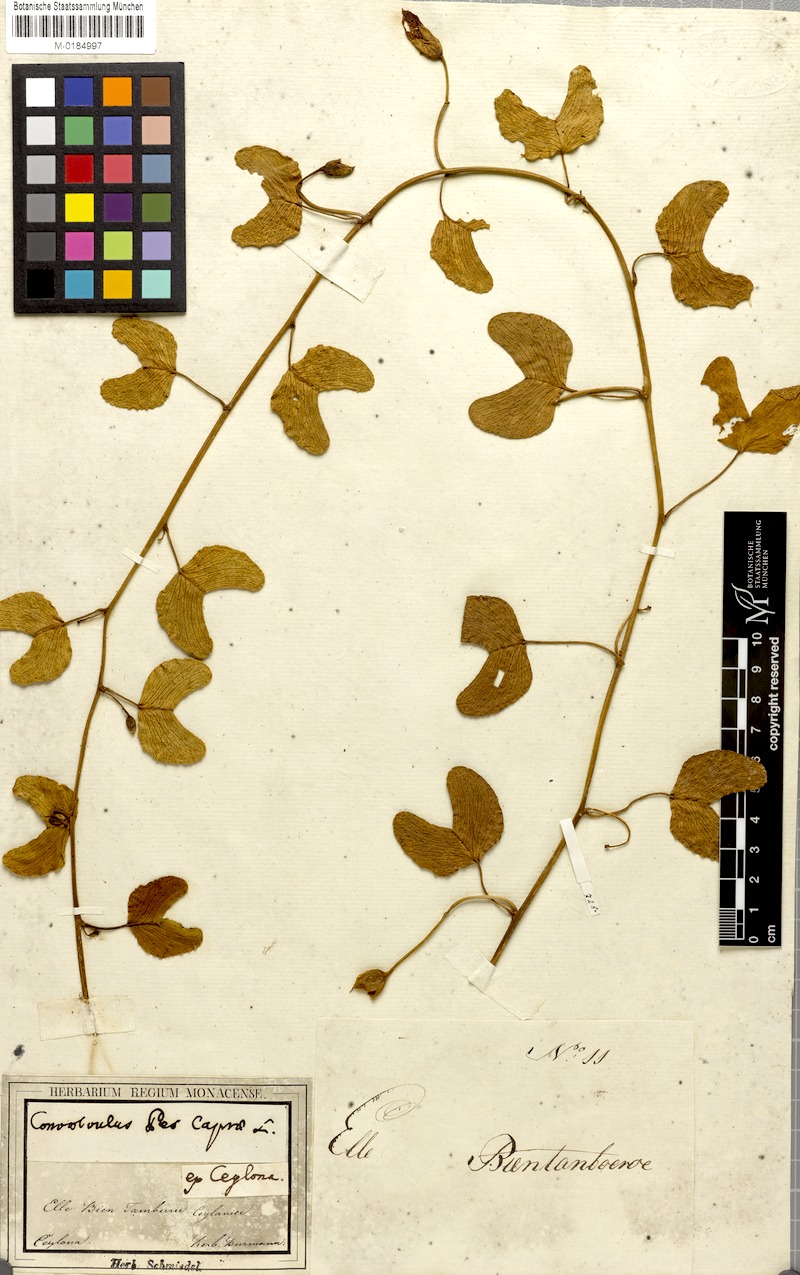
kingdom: Plantae
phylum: Tracheophyta
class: Magnoliopsida
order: Solanales
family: Convolvulaceae
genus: Ipomoea
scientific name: Ipomoea pes-caprae
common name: Beach morning glory
